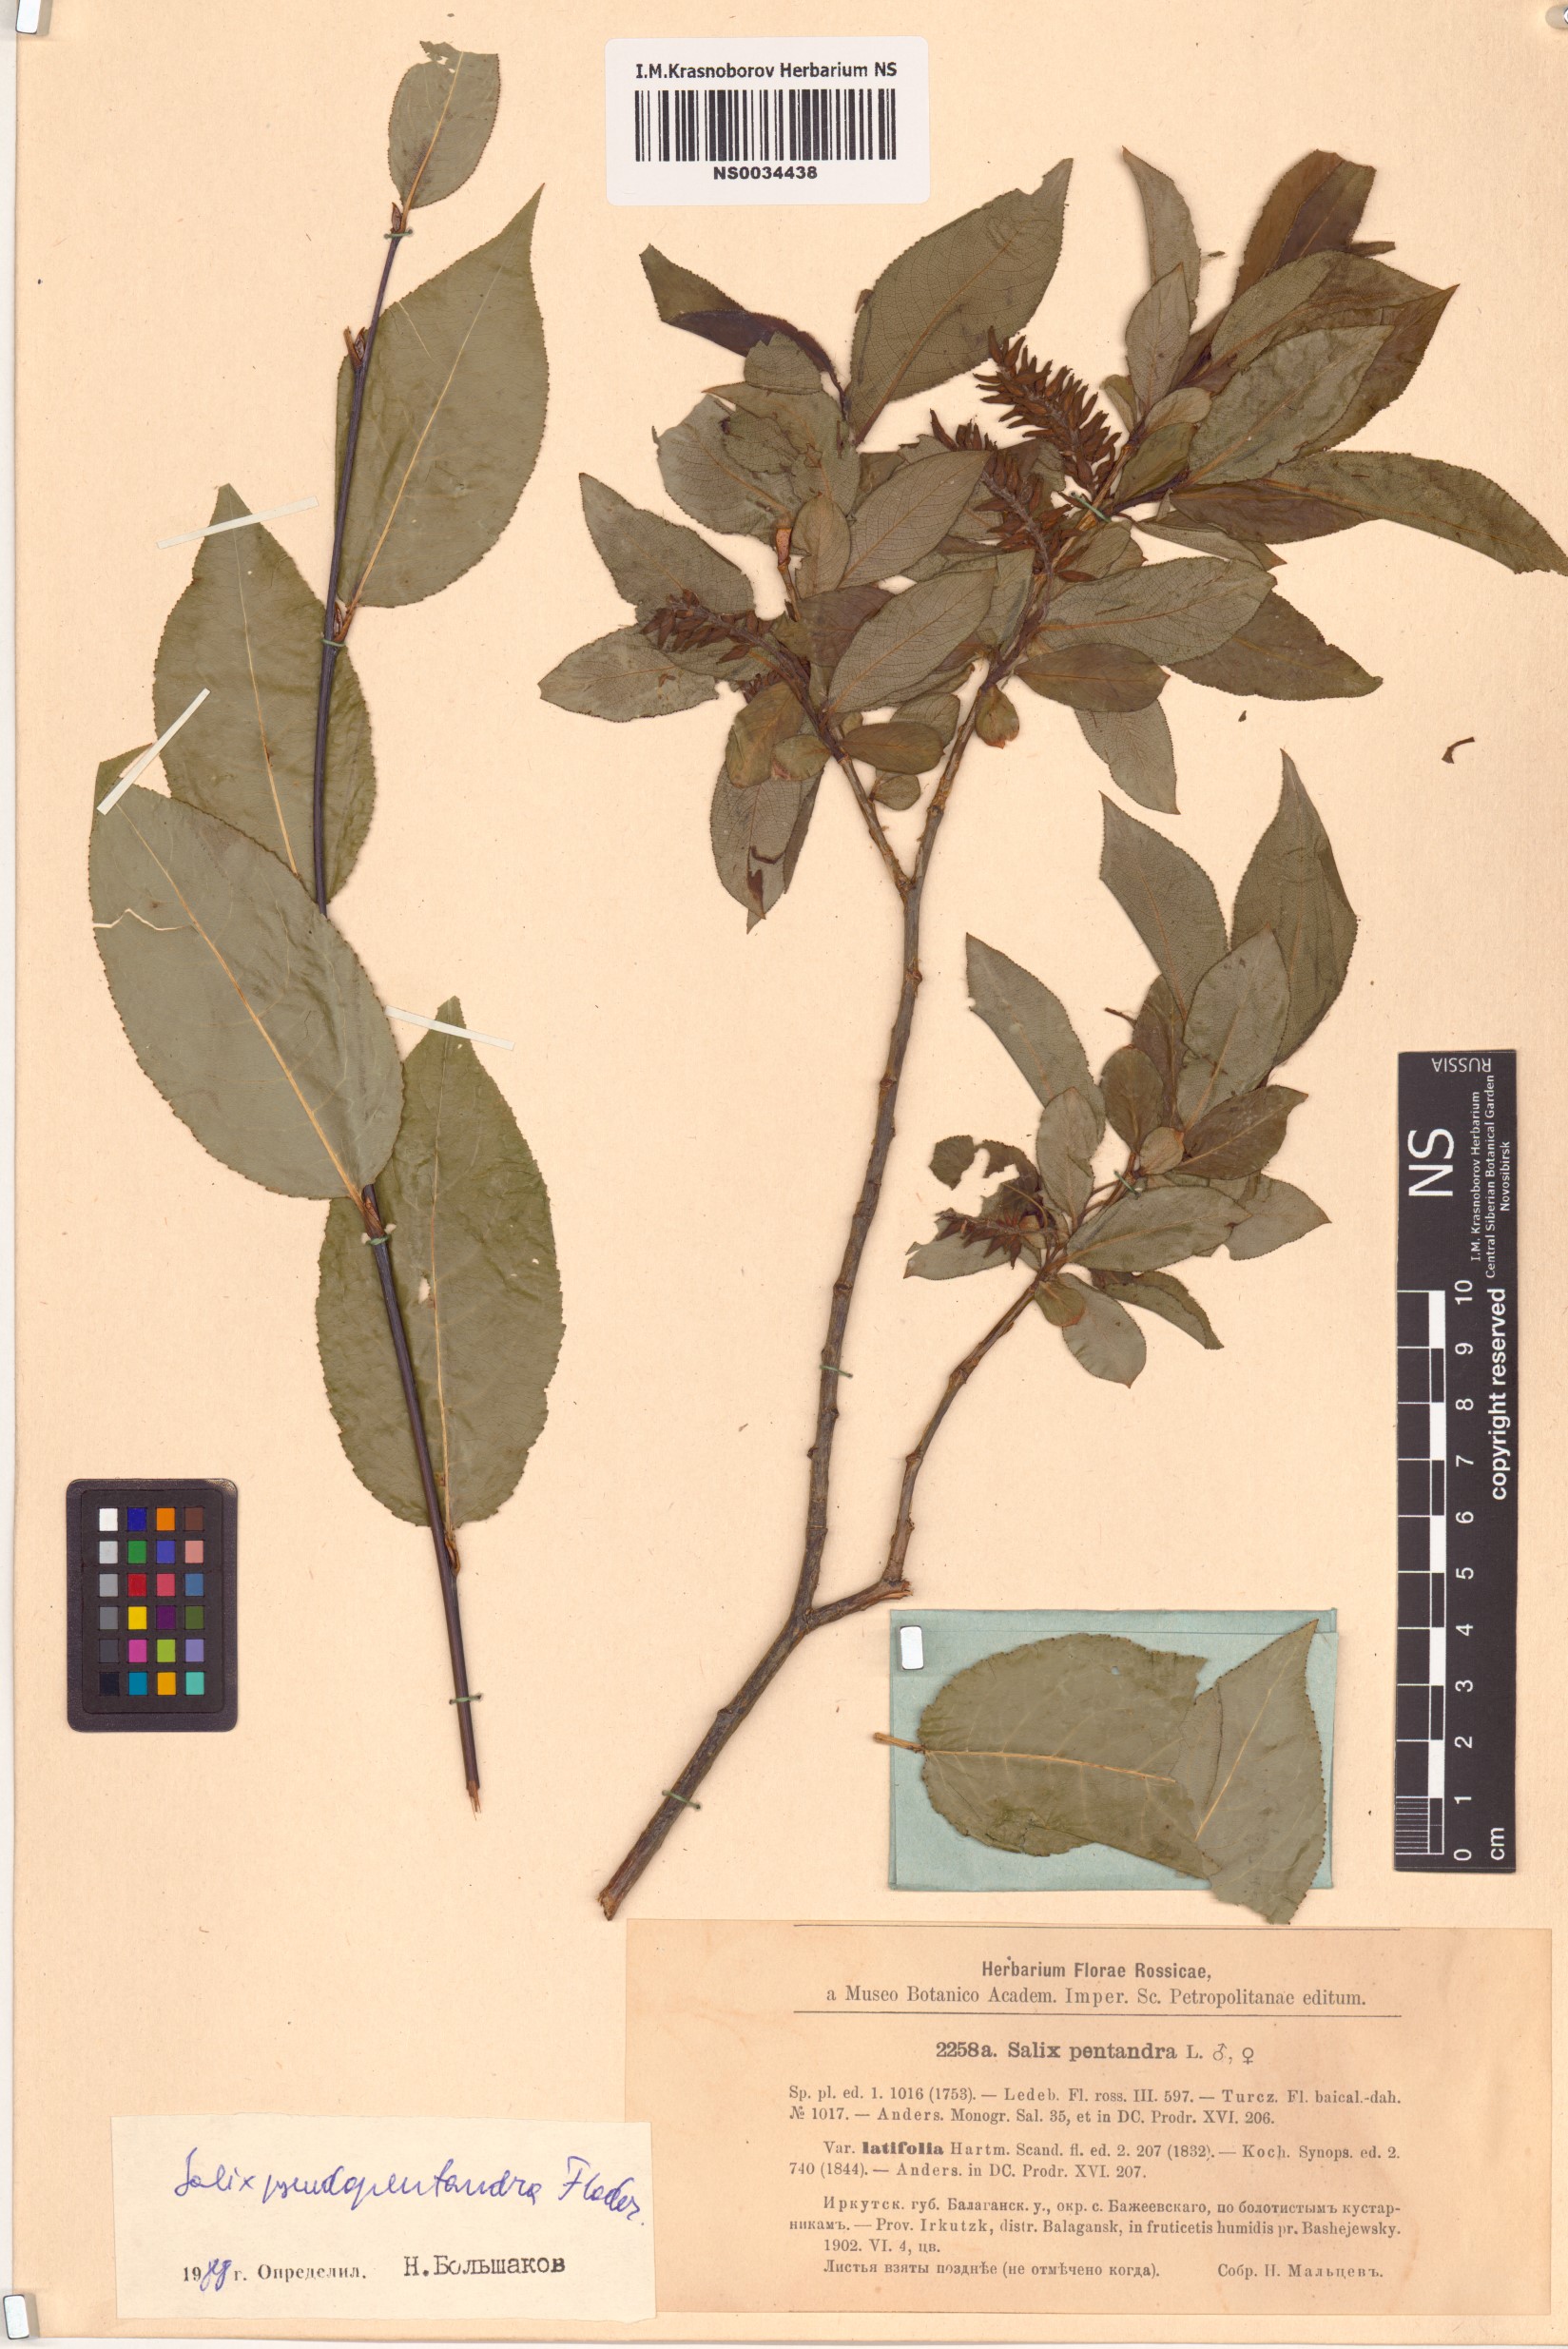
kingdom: Plantae
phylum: Tracheophyta
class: Magnoliopsida
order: Malpighiales
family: Salicaceae
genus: Salix
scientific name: Salix pseudopentandra
